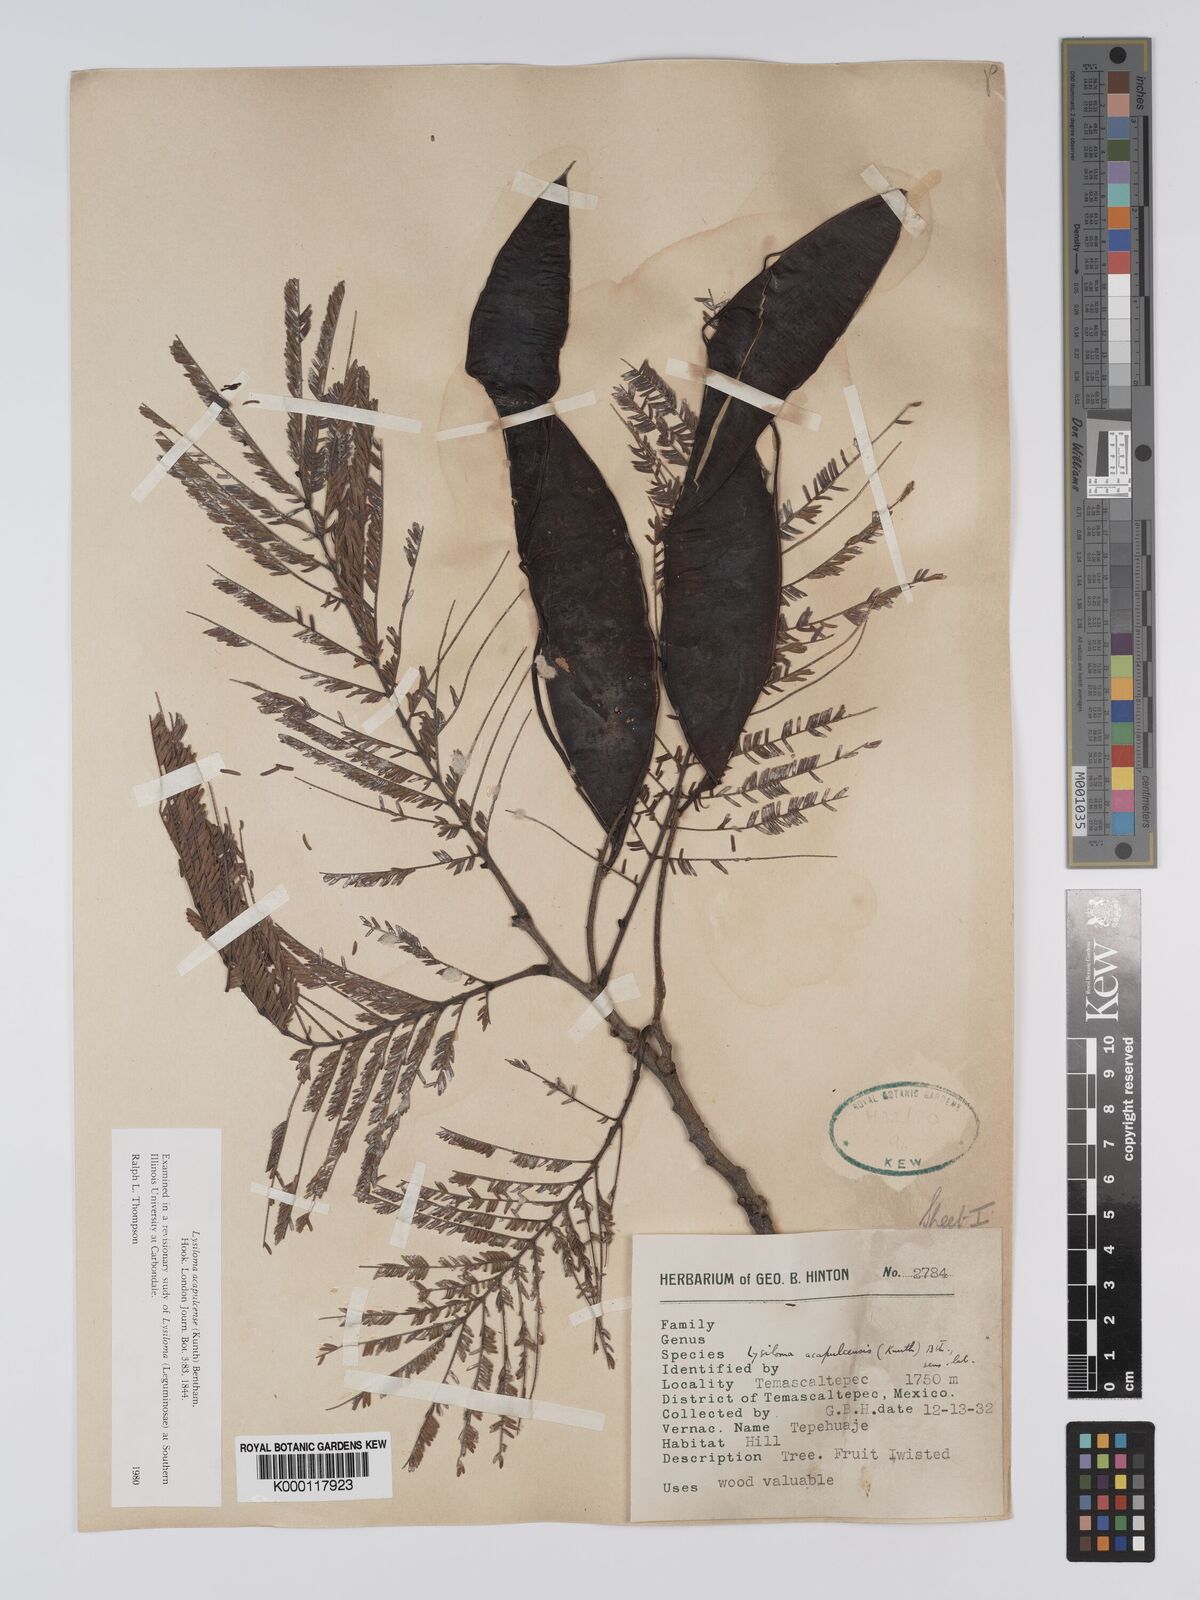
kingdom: Plantae
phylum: Tracheophyta
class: Magnoliopsida
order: Fabales
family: Fabaceae
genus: Lysiloma
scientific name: Lysiloma acapulcense
